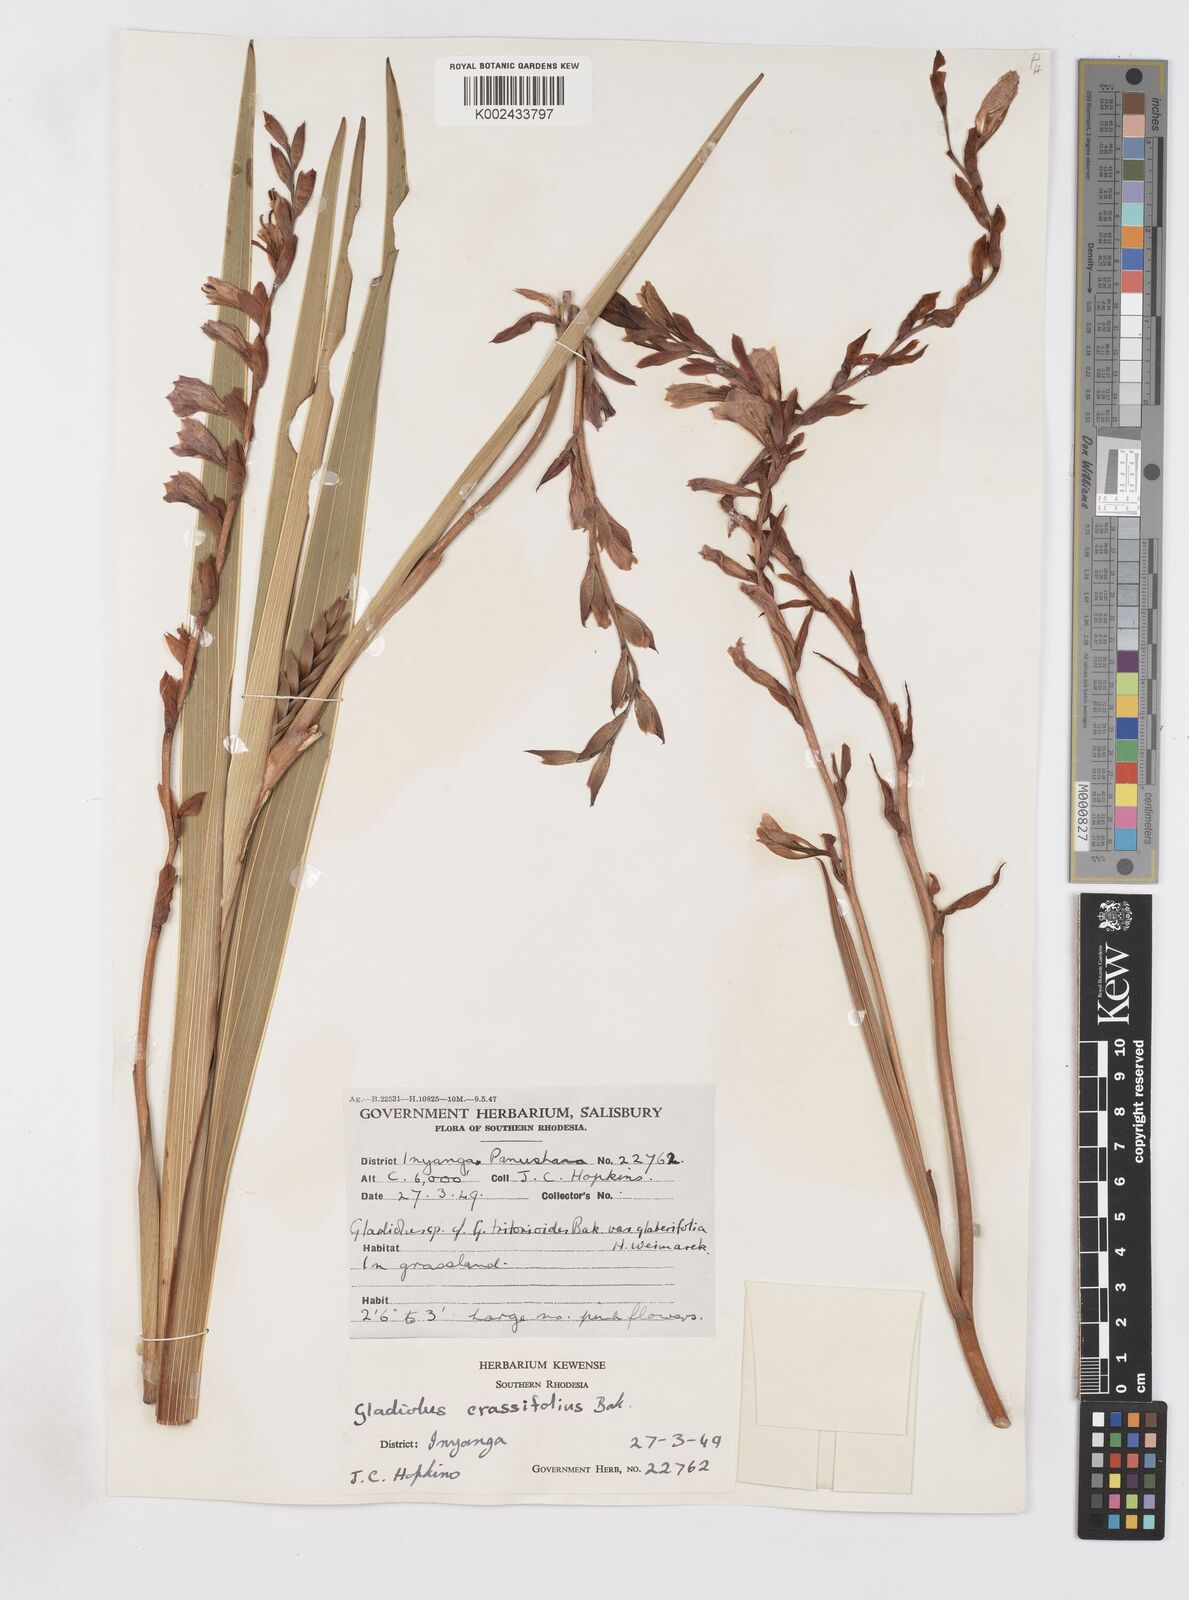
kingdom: Plantae
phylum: Tracheophyta
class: Liliopsida
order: Asparagales
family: Iridaceae
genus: Gladiolus
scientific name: Gladiolus crassifolius
